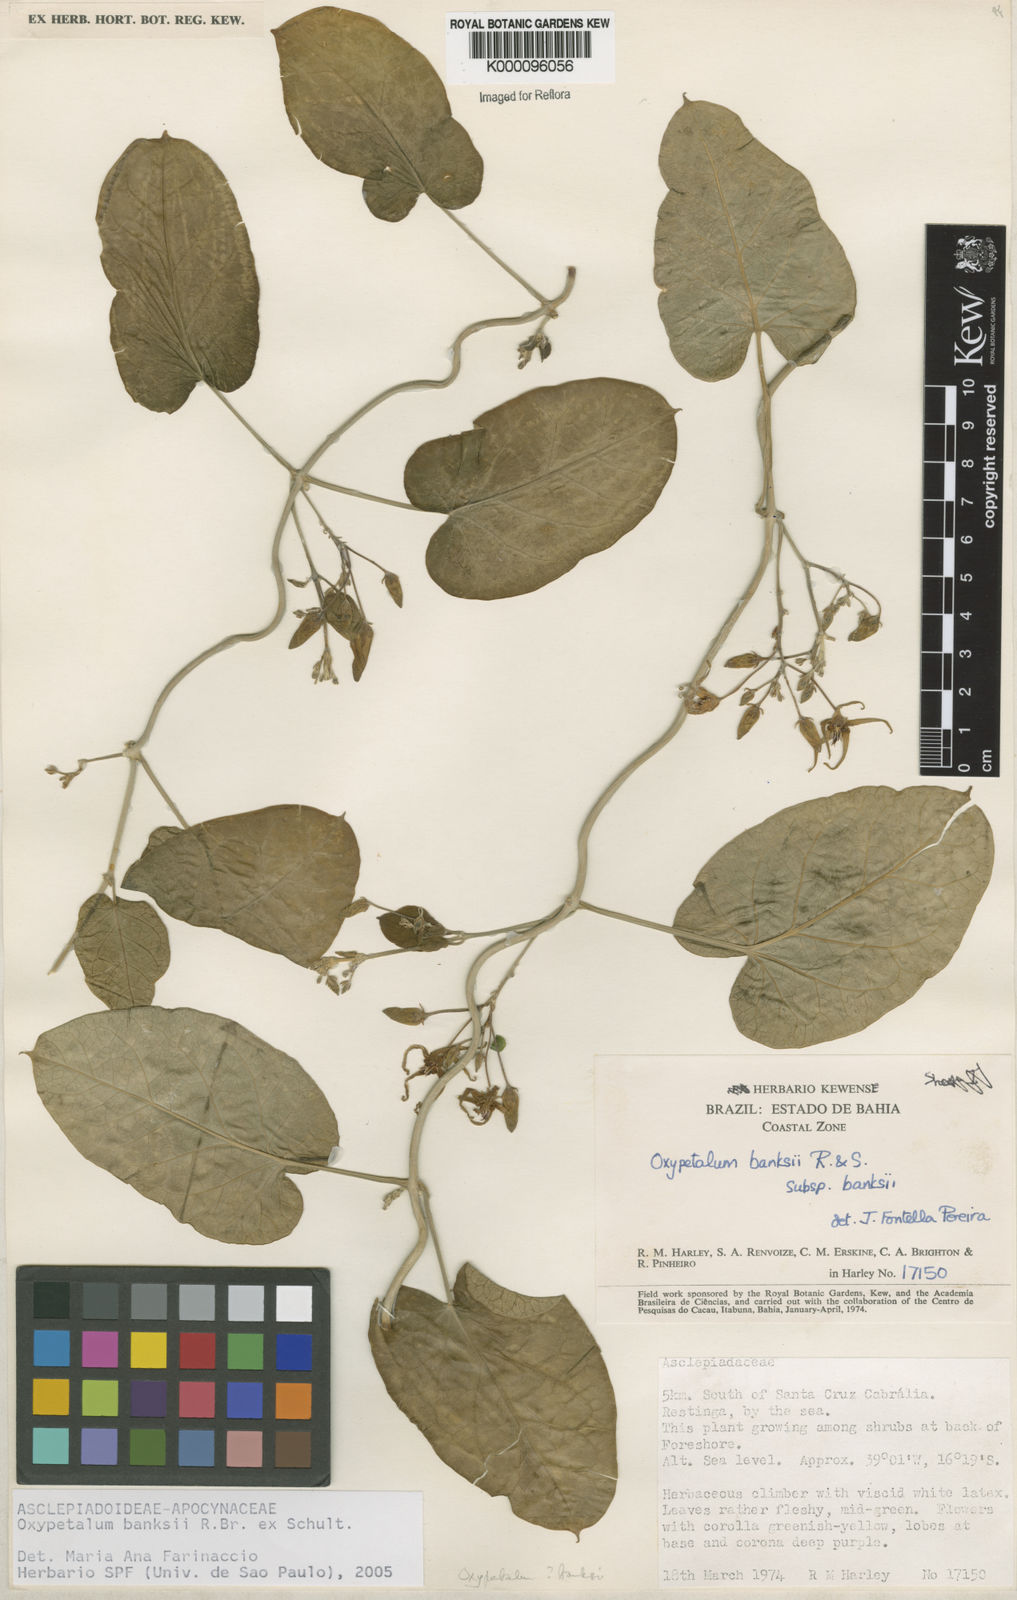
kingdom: Plantae
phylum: Tracheophyta
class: Magnoliopsida
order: Gentianales
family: Apocynaceae
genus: Oxypetalum
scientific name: Oxypetalum banksii
